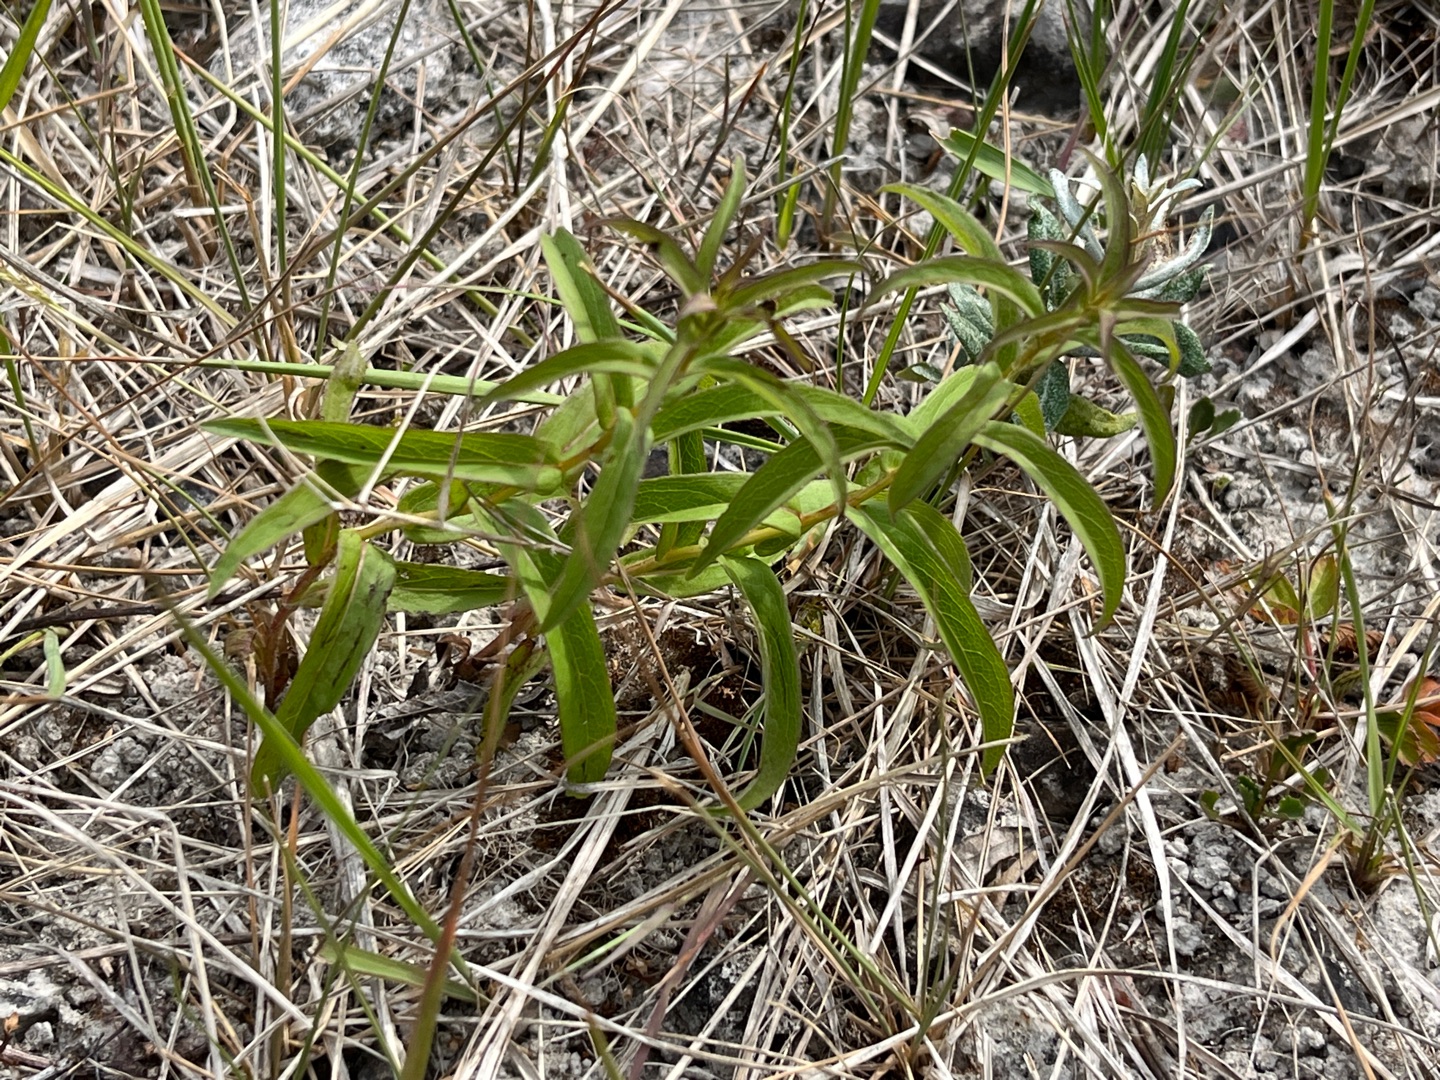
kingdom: Plantae
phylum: Tracheophyta
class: Magnoliopsida
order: Asterales
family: Asteraceae
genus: Pentanema
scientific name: Pentanema salicinum
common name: Pile-alant
